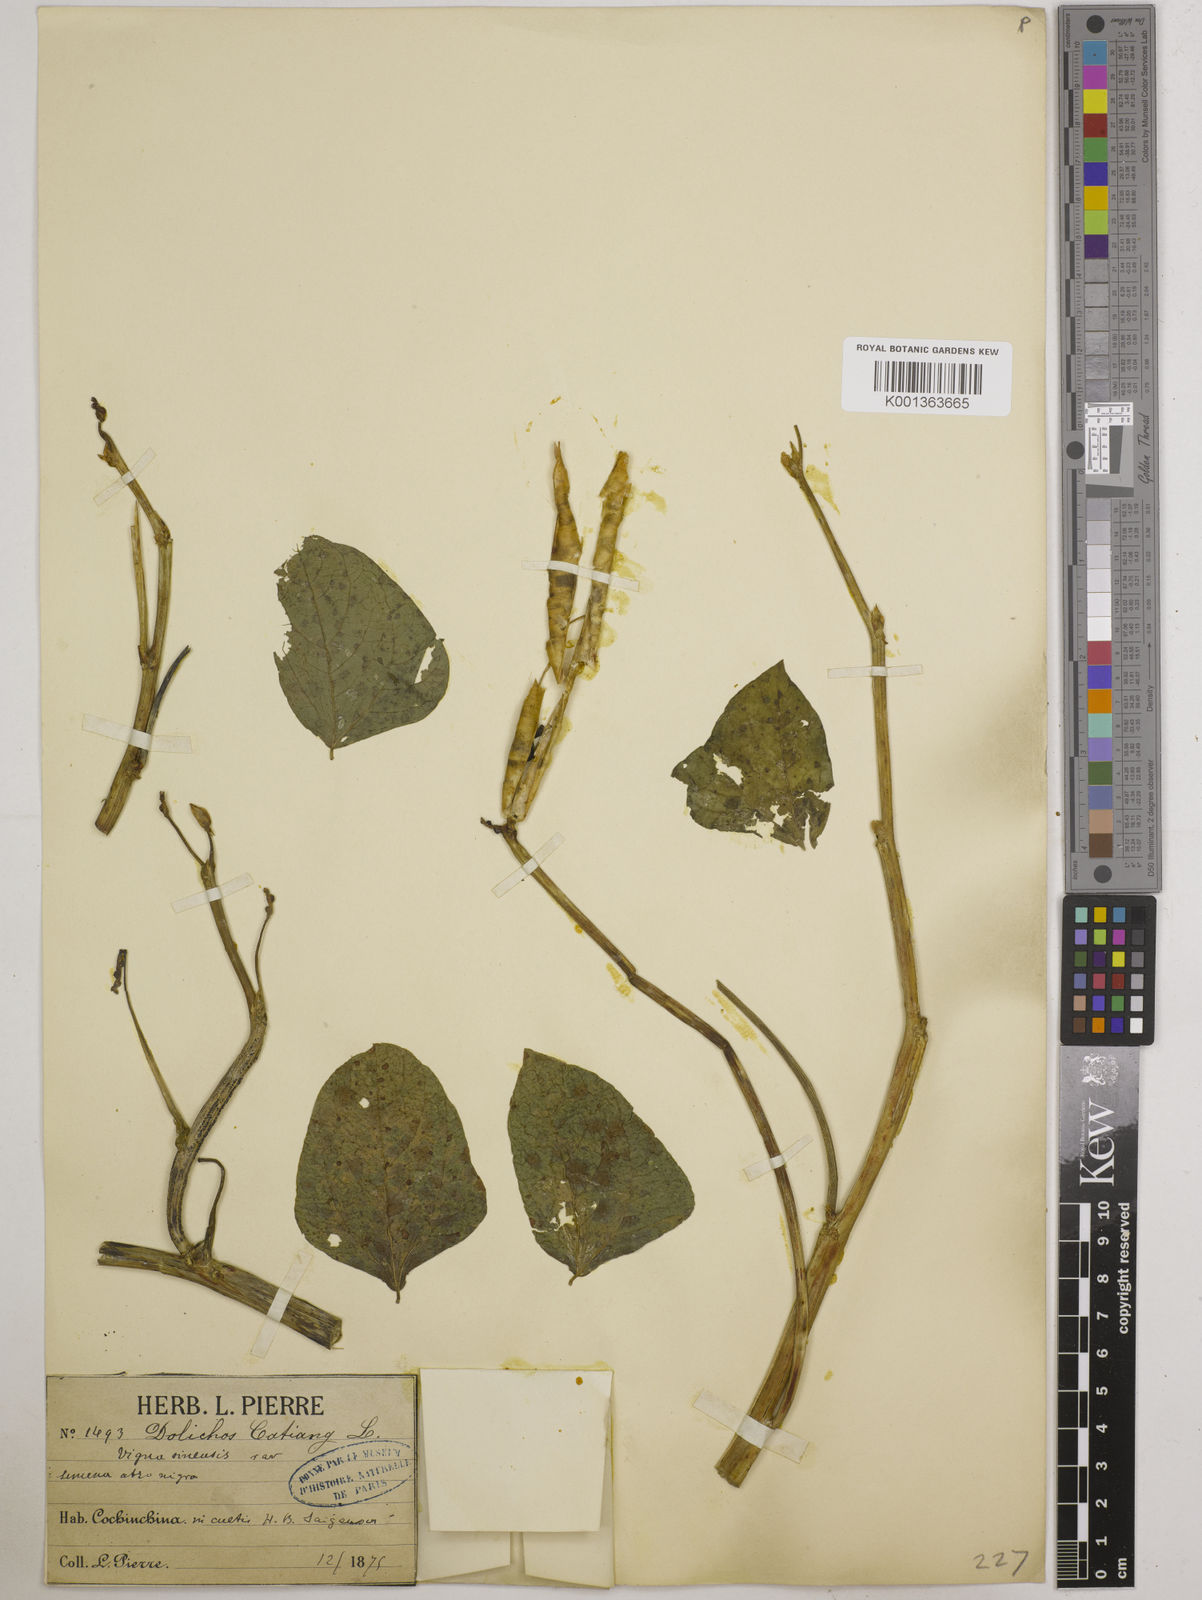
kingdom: Plantae
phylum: Tracheophyta
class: Magnoliopsida
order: Fabales
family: Fabaceae
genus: Vigna
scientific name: Vigna unguiculata
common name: Cowpea
